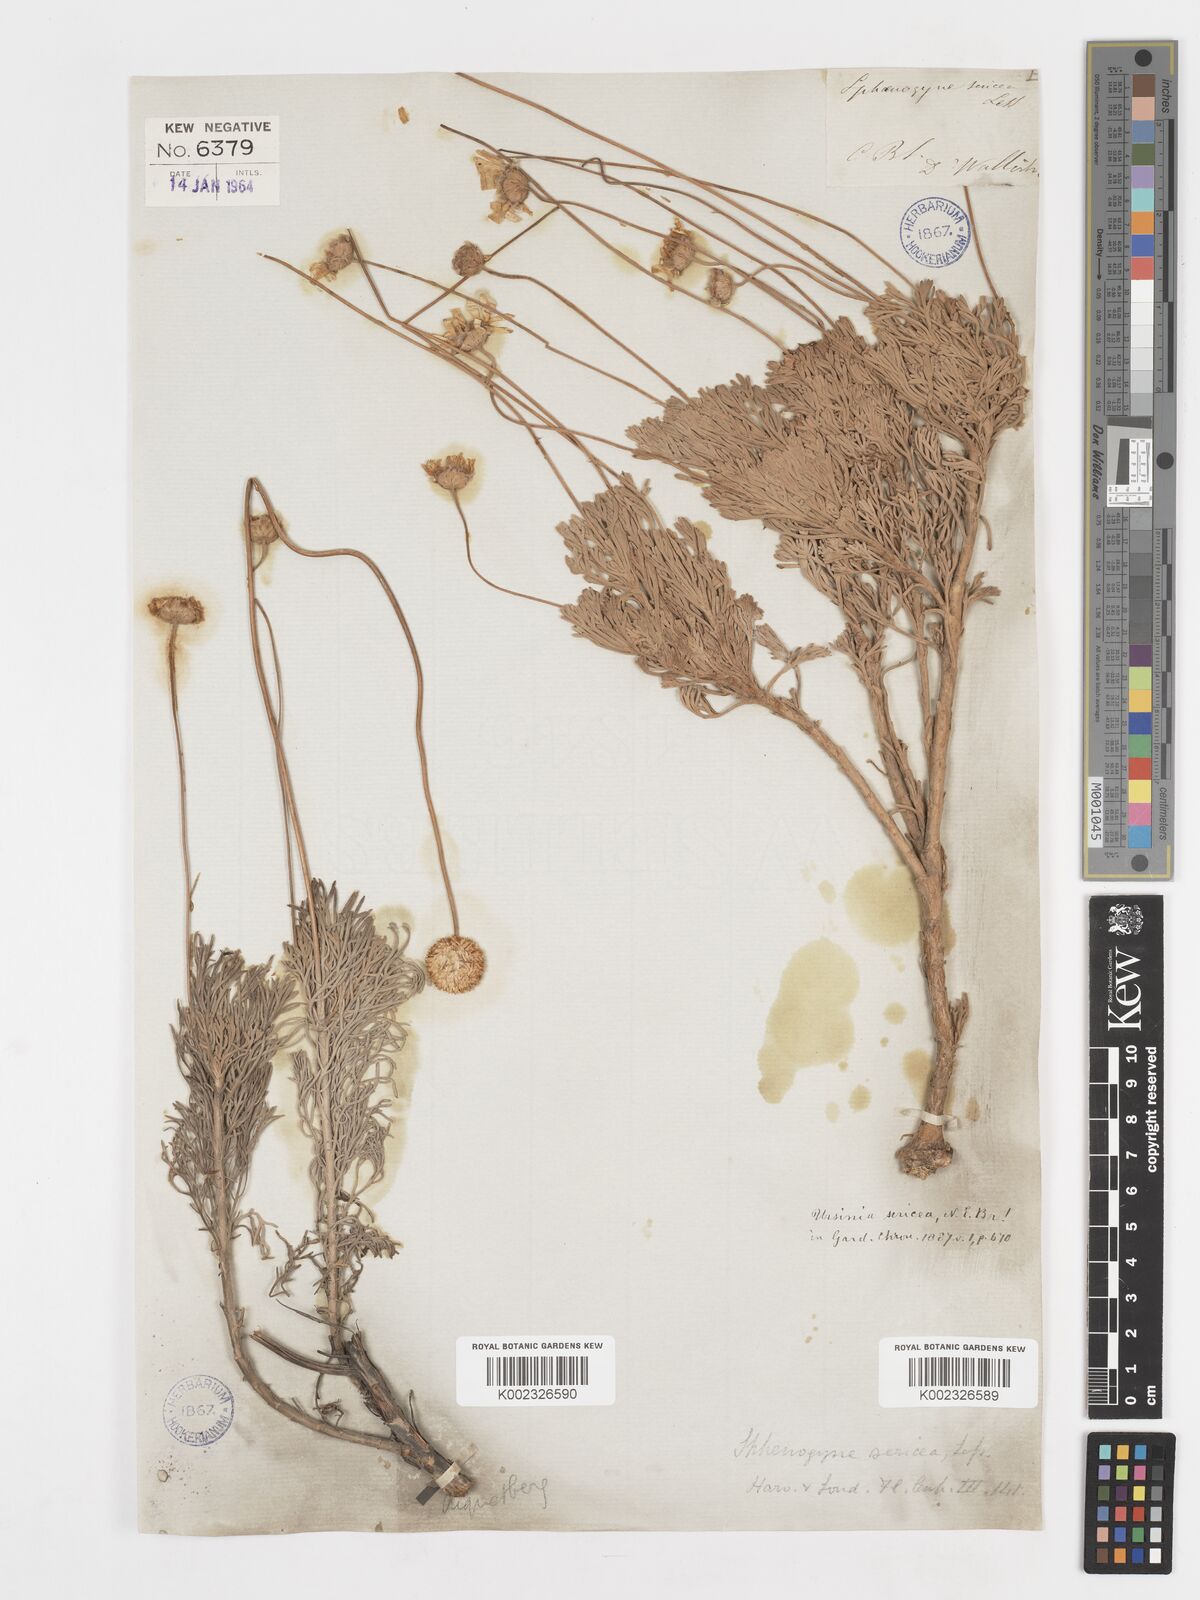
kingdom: Plantae
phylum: Tracheophyta
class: Magnoliopsida
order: Asterales
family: Asteraceae
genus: Ursinia
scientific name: Ursinia sericea
